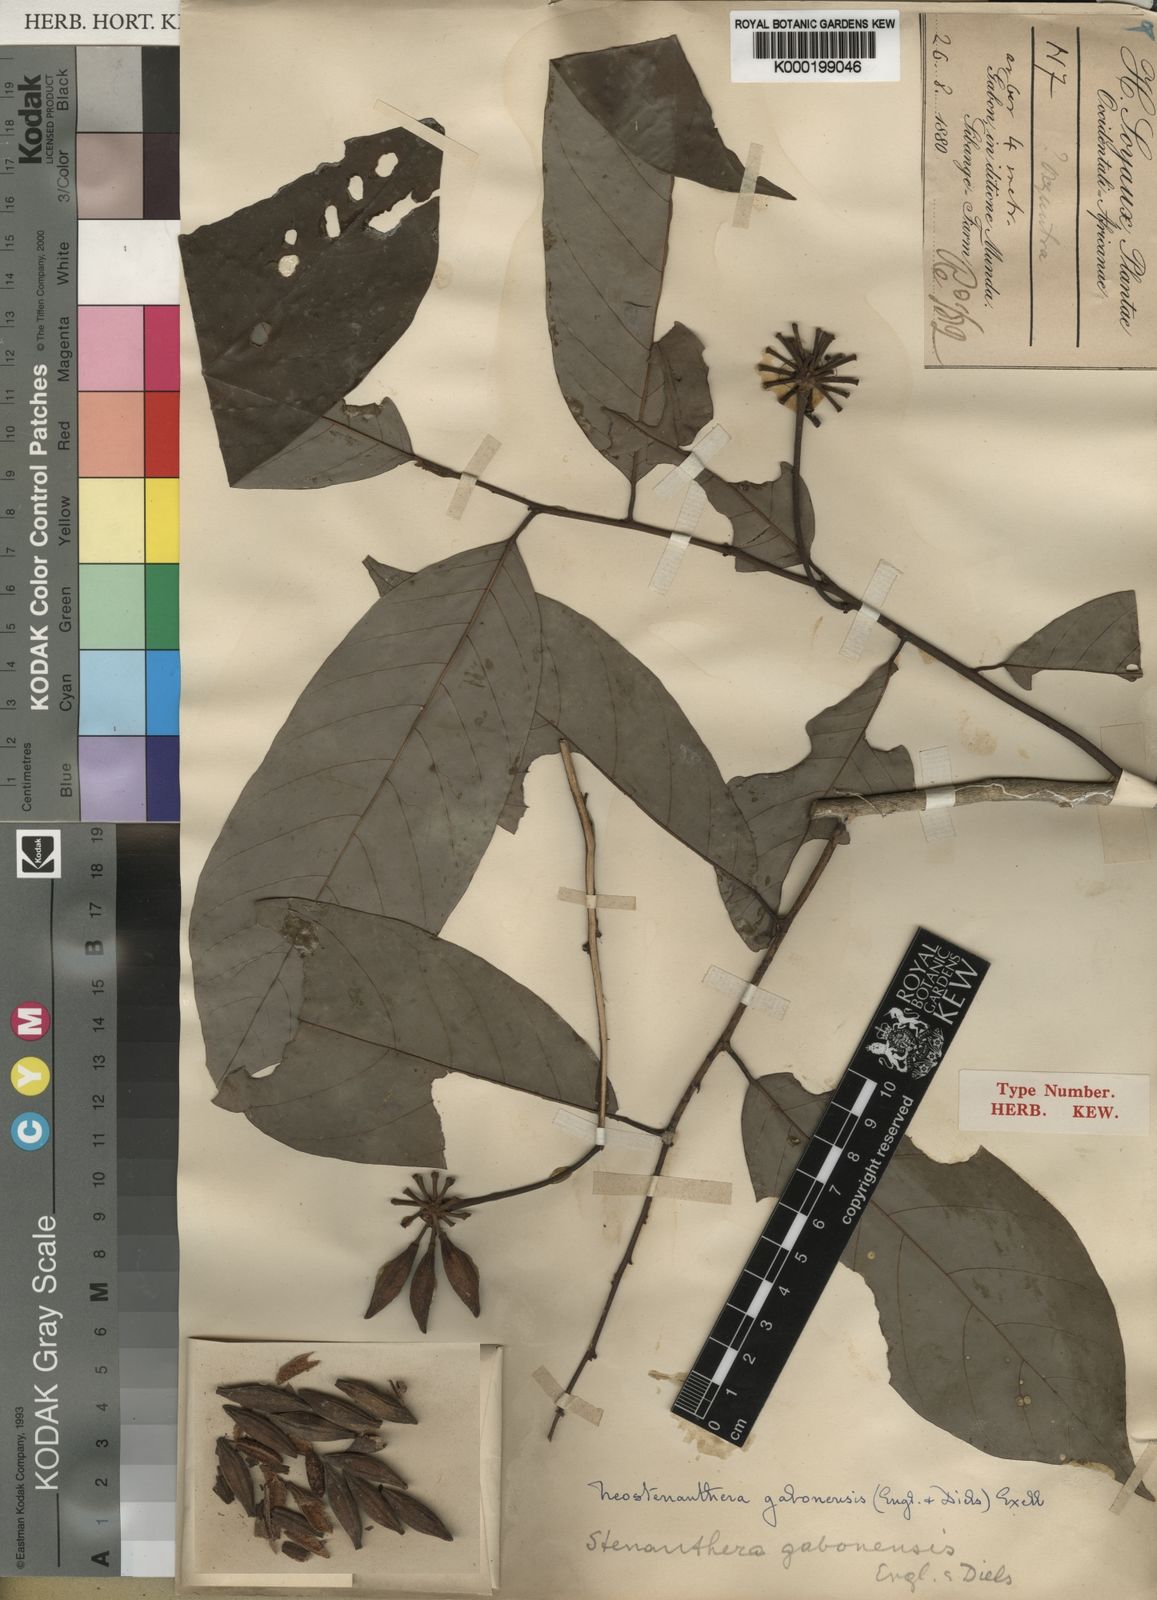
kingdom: Plantae
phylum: Tracheophyta
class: Magnoliopsida
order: Magnoliales
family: Annonaceae
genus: Neostenanthera
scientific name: Neostenanthera gabonensis
